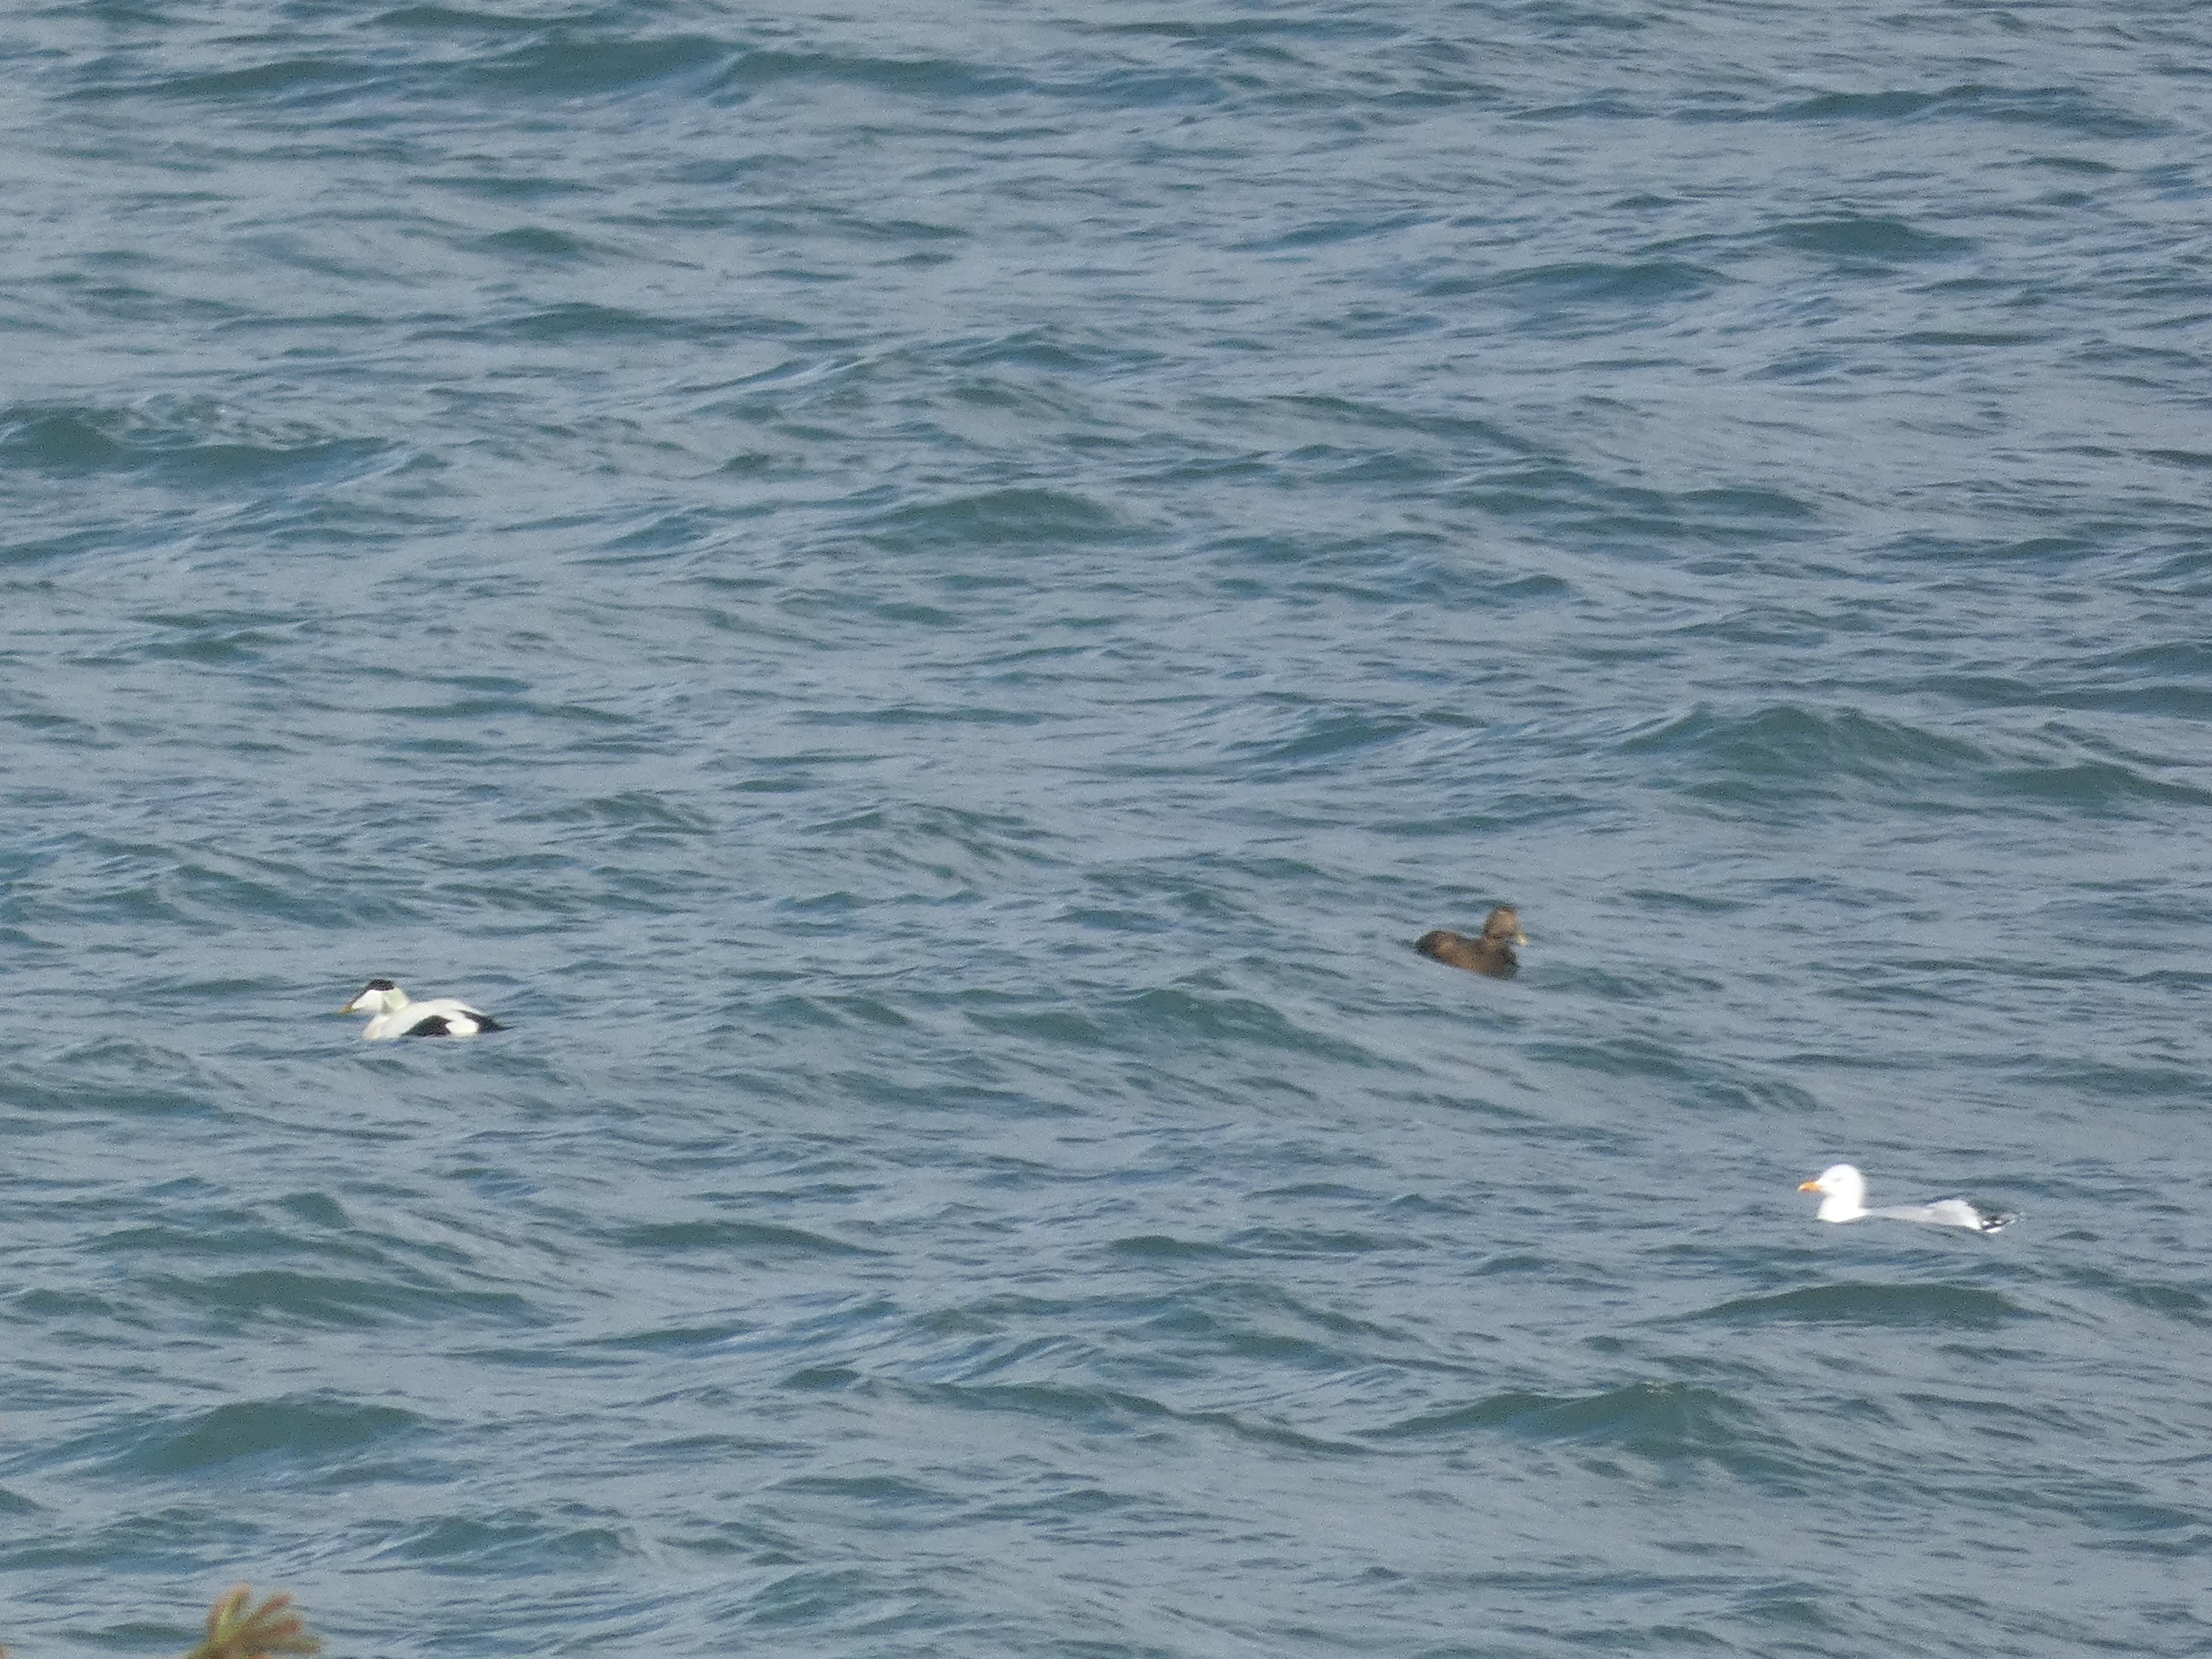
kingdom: Animalia
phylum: Chordata
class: Aves
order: Anseriformes
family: Anatidae
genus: Somateria
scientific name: Somateria mollissima
